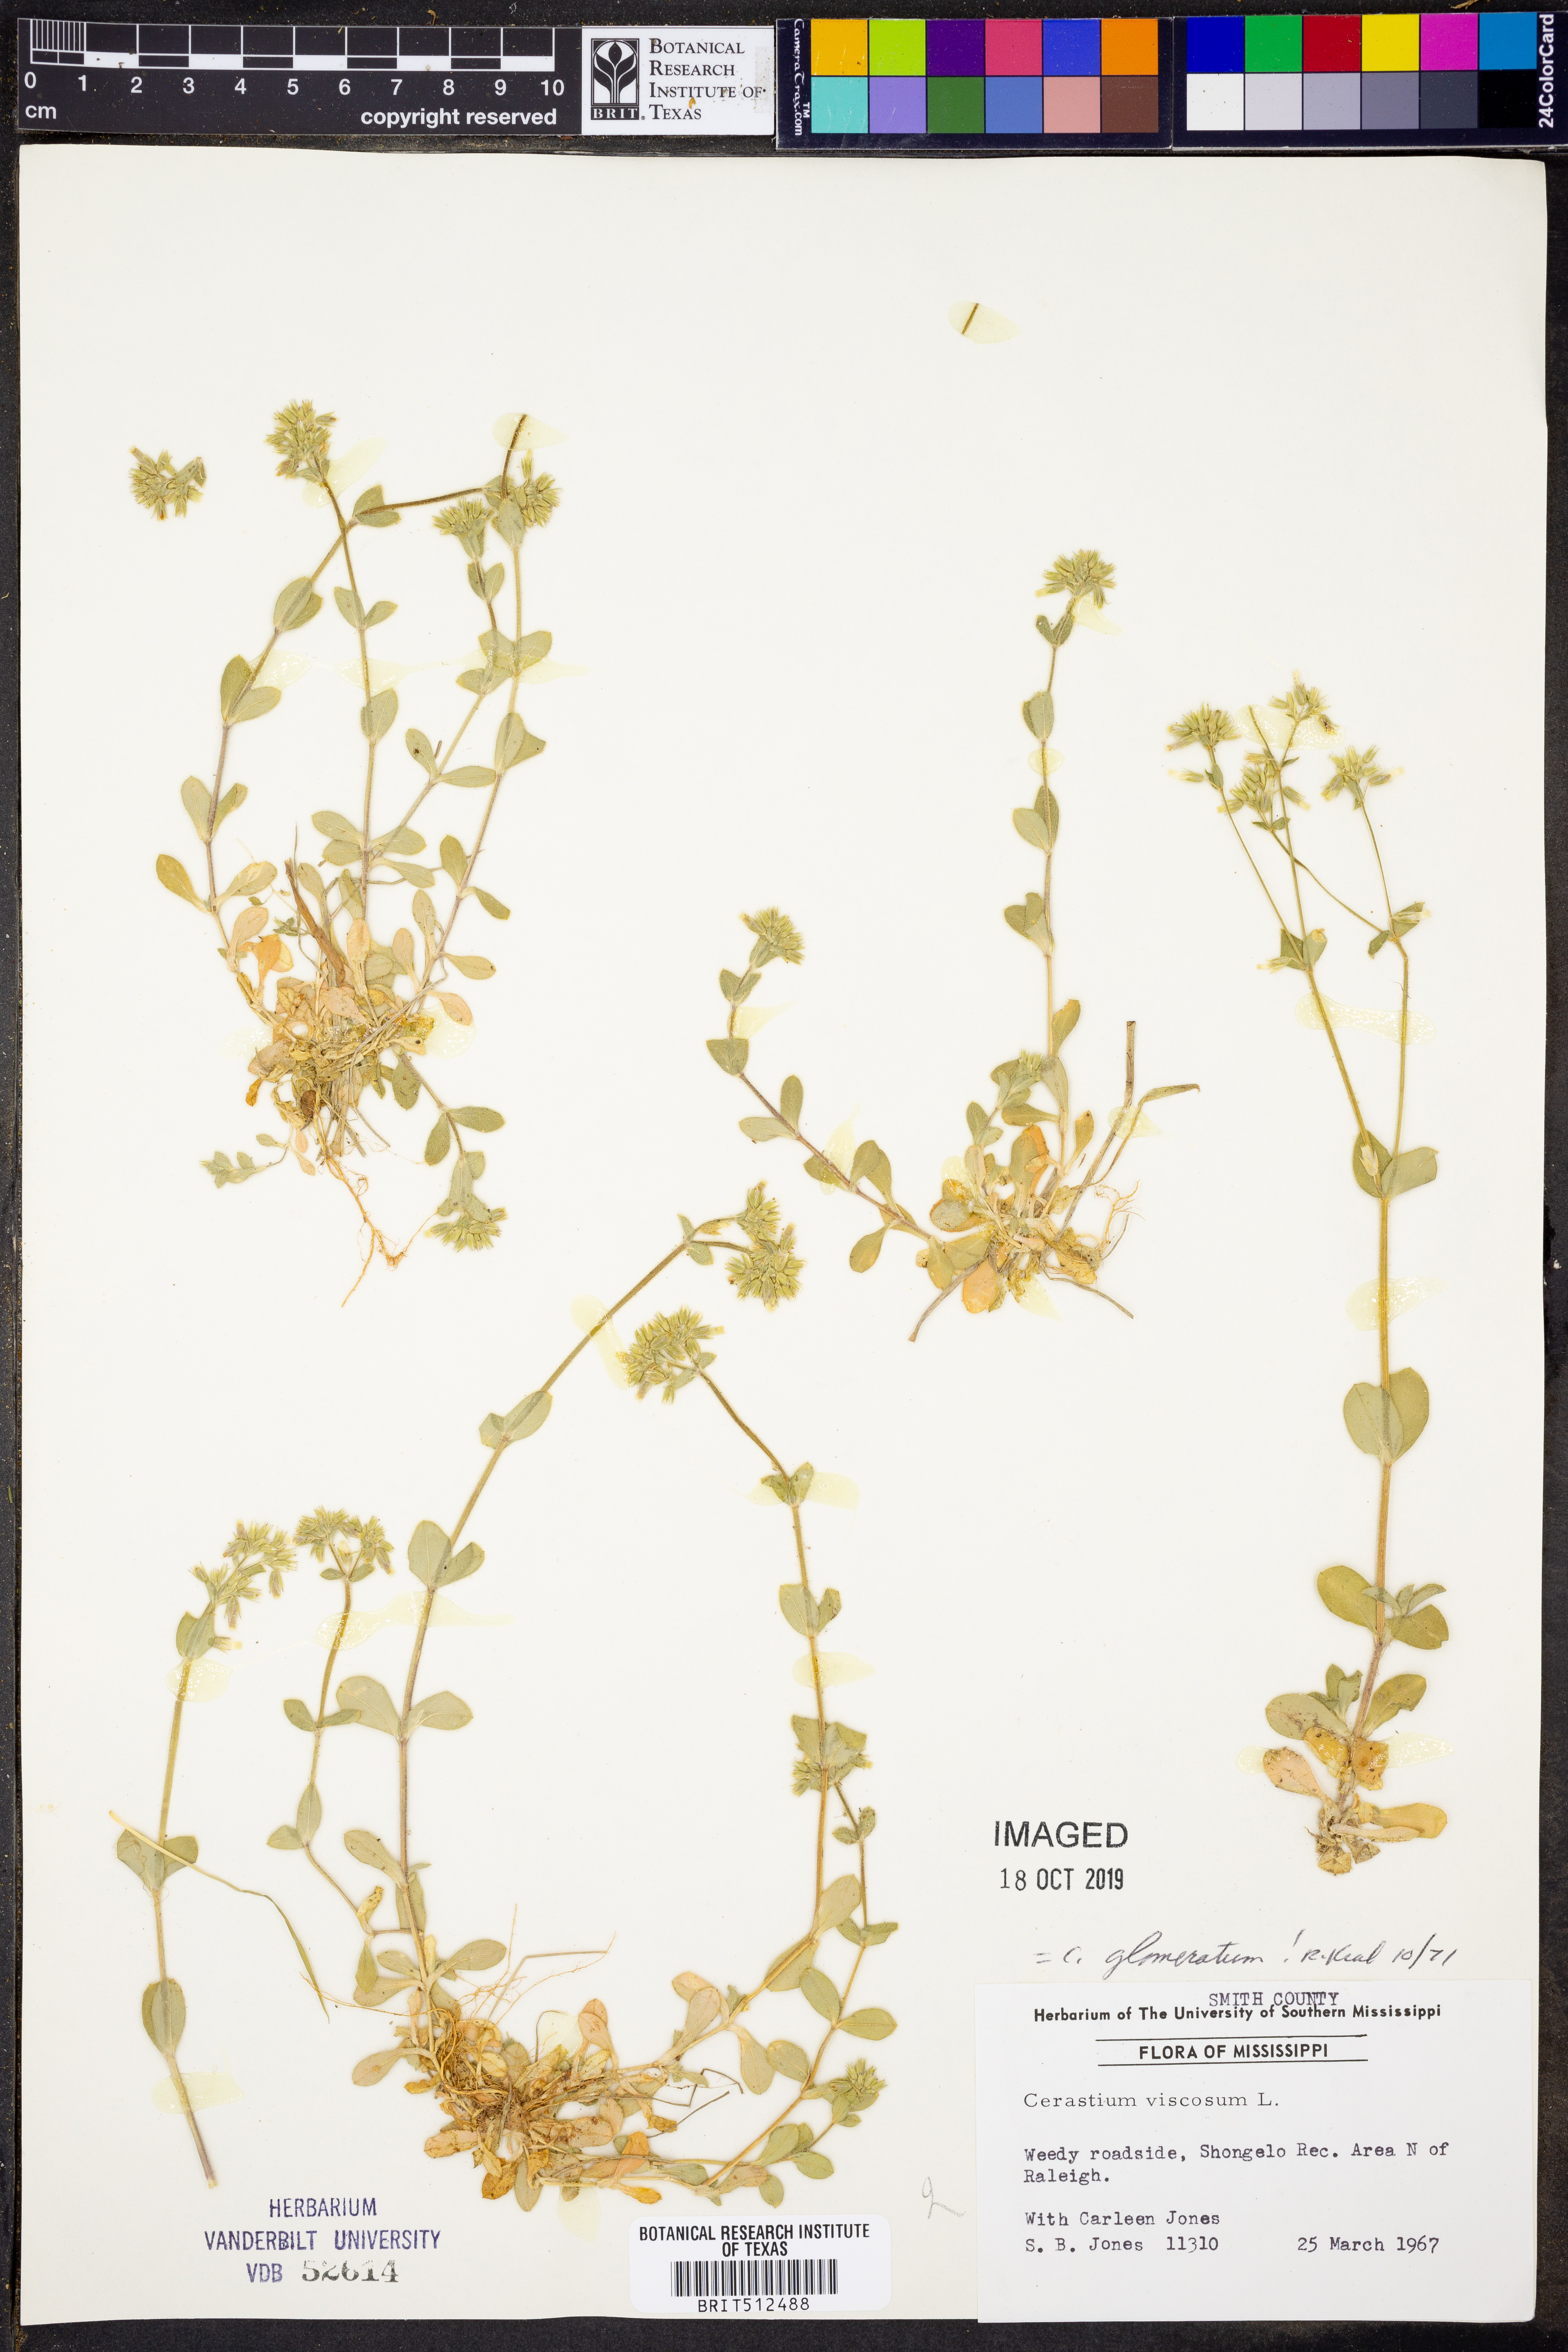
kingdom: Plantae
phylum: Tracheophyta
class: Magnoliopsida
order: Caryophyllales
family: Caryophyllaceae
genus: Cerastium
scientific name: Cerastium glomeratum
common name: Sticky chickweed
